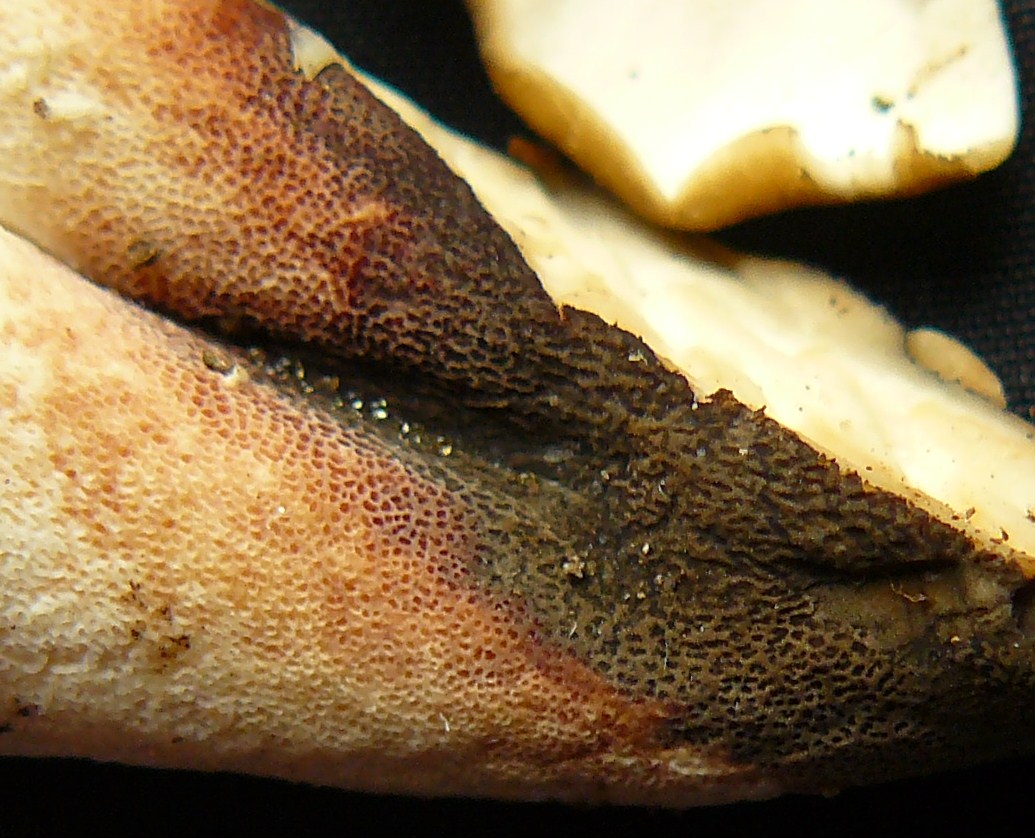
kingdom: Fungi
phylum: Basidiomycota
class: Agaricomycetes
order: Polyporales
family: Polyporaceae
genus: Cerioporus
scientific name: Cerioporus varius
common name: foranderlig stilkporesvamp
